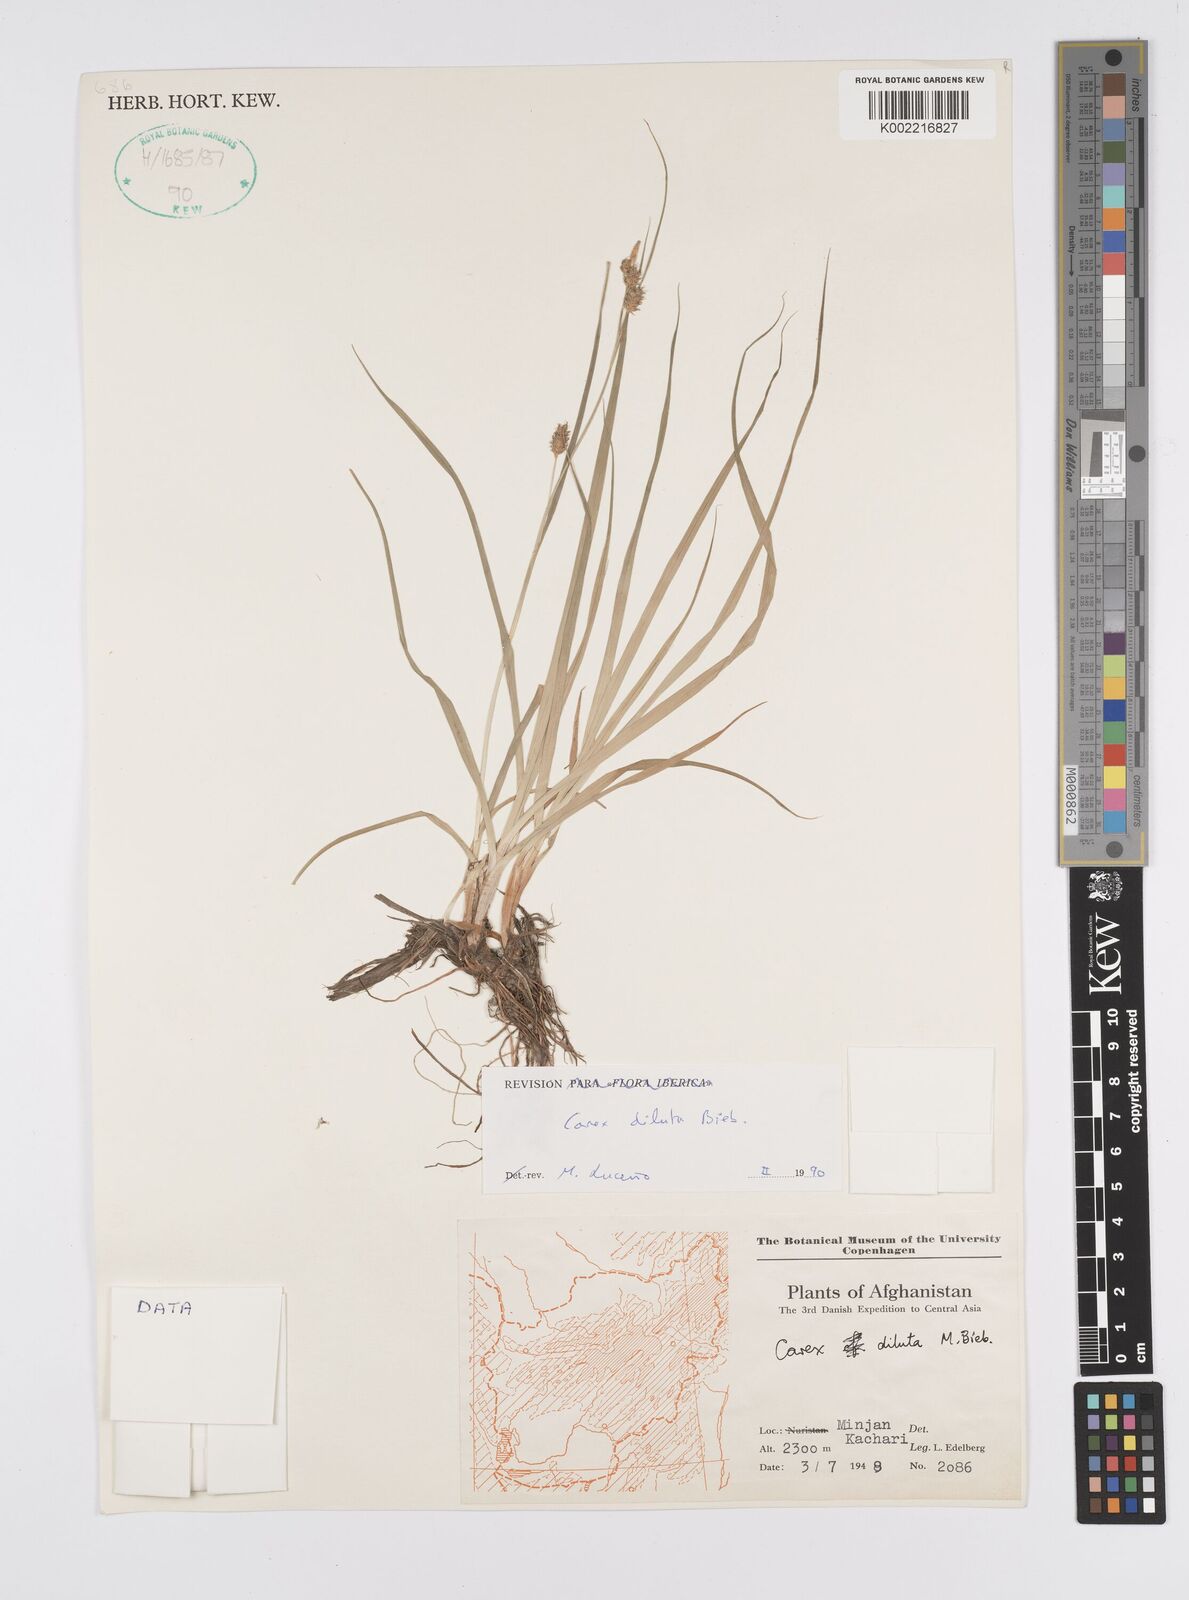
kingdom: Plantae
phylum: Tracheophyta
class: Liliopsida
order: Poales
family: Cyperaceae
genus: Carex
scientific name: Carex diluta
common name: Sedge
